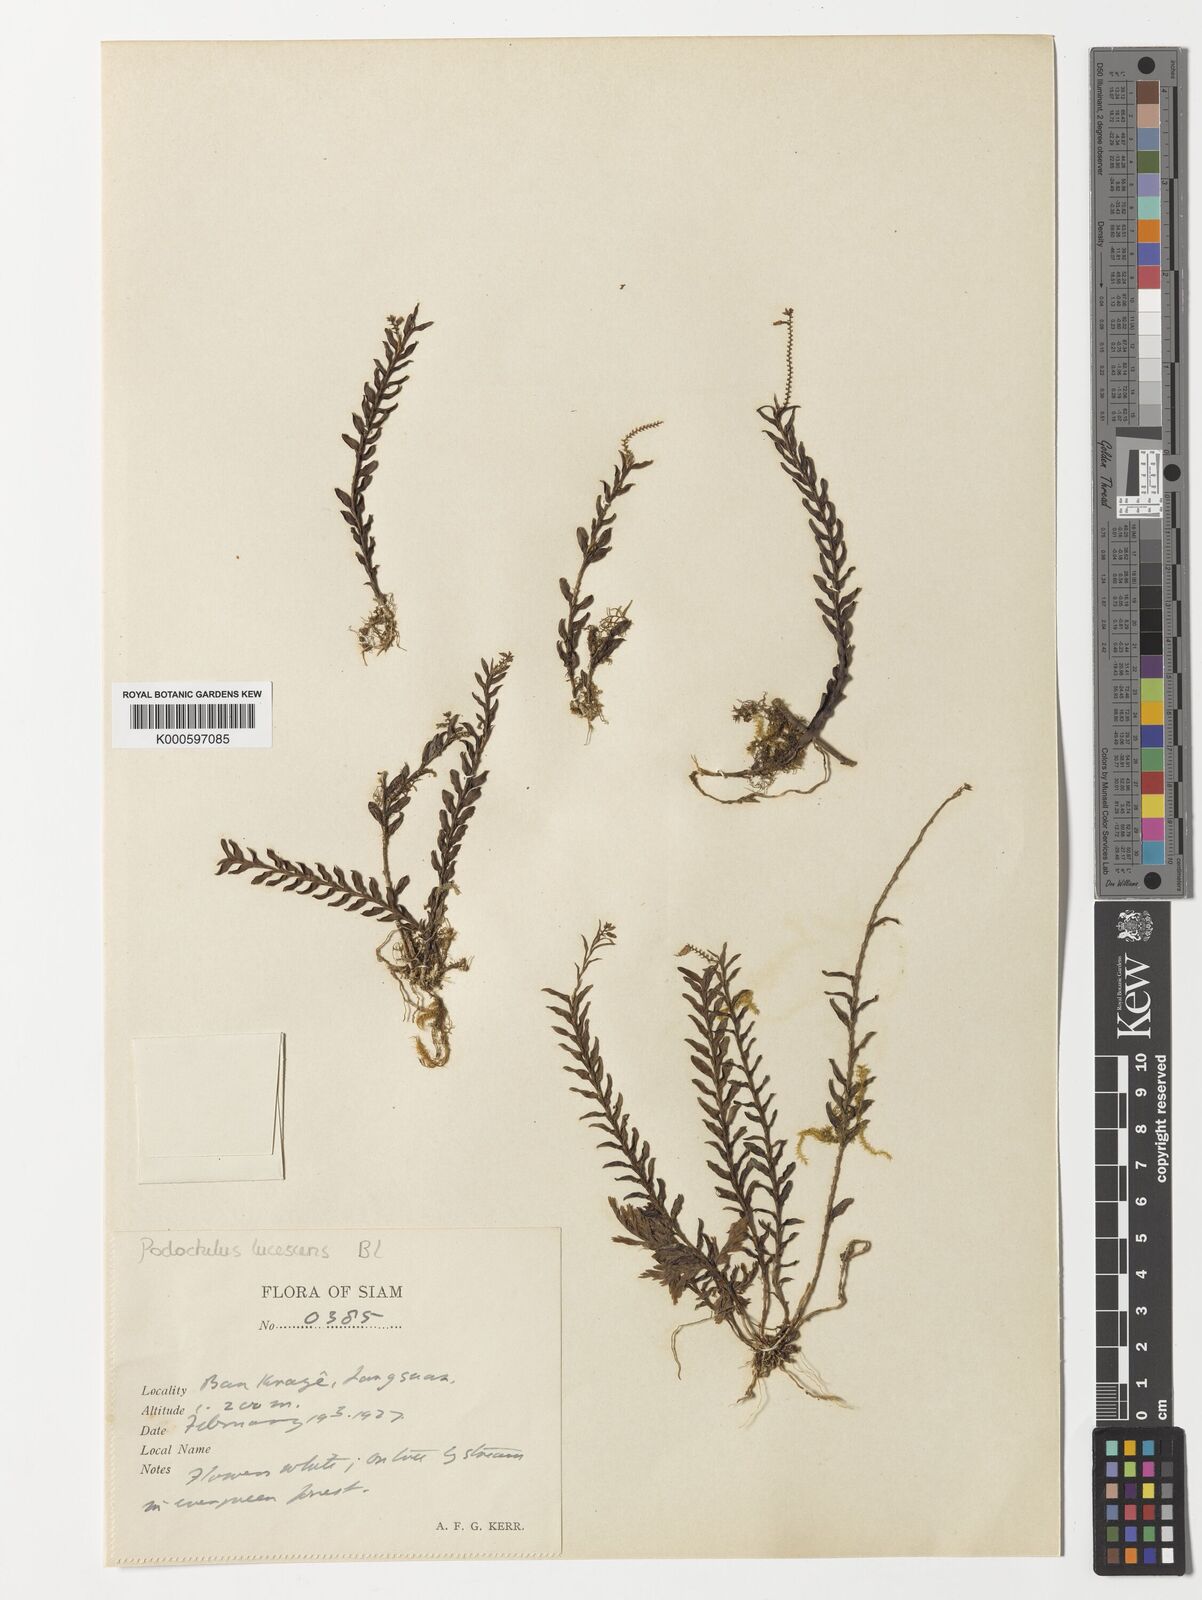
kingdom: Plantae
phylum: Tracheophyta
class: Liliopsida
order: Asparagales
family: Orchidaceae
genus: Podochilus
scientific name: Podochilus lucescens
